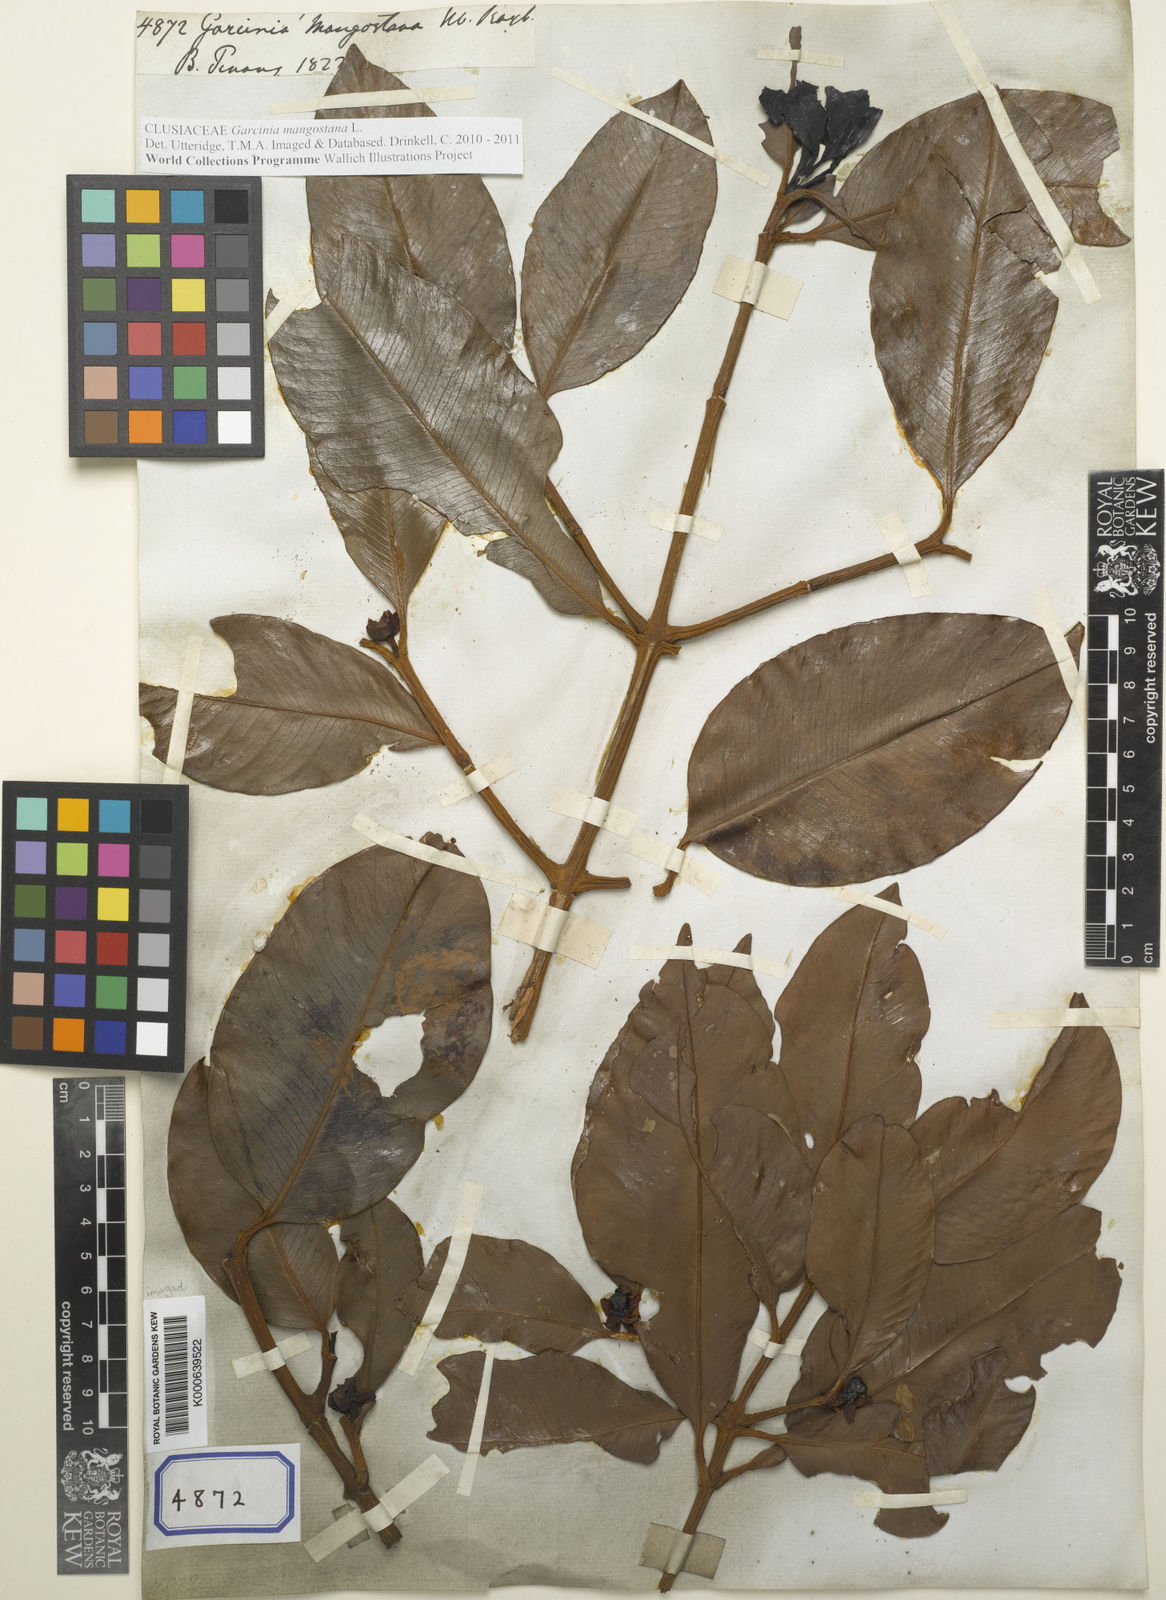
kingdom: Plantae
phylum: Tracheophyta
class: Magnoliopsida
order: Malpighiales
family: Clusiaceae
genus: Garcinia
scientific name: Garcinia mangostana
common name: Mangosteen
